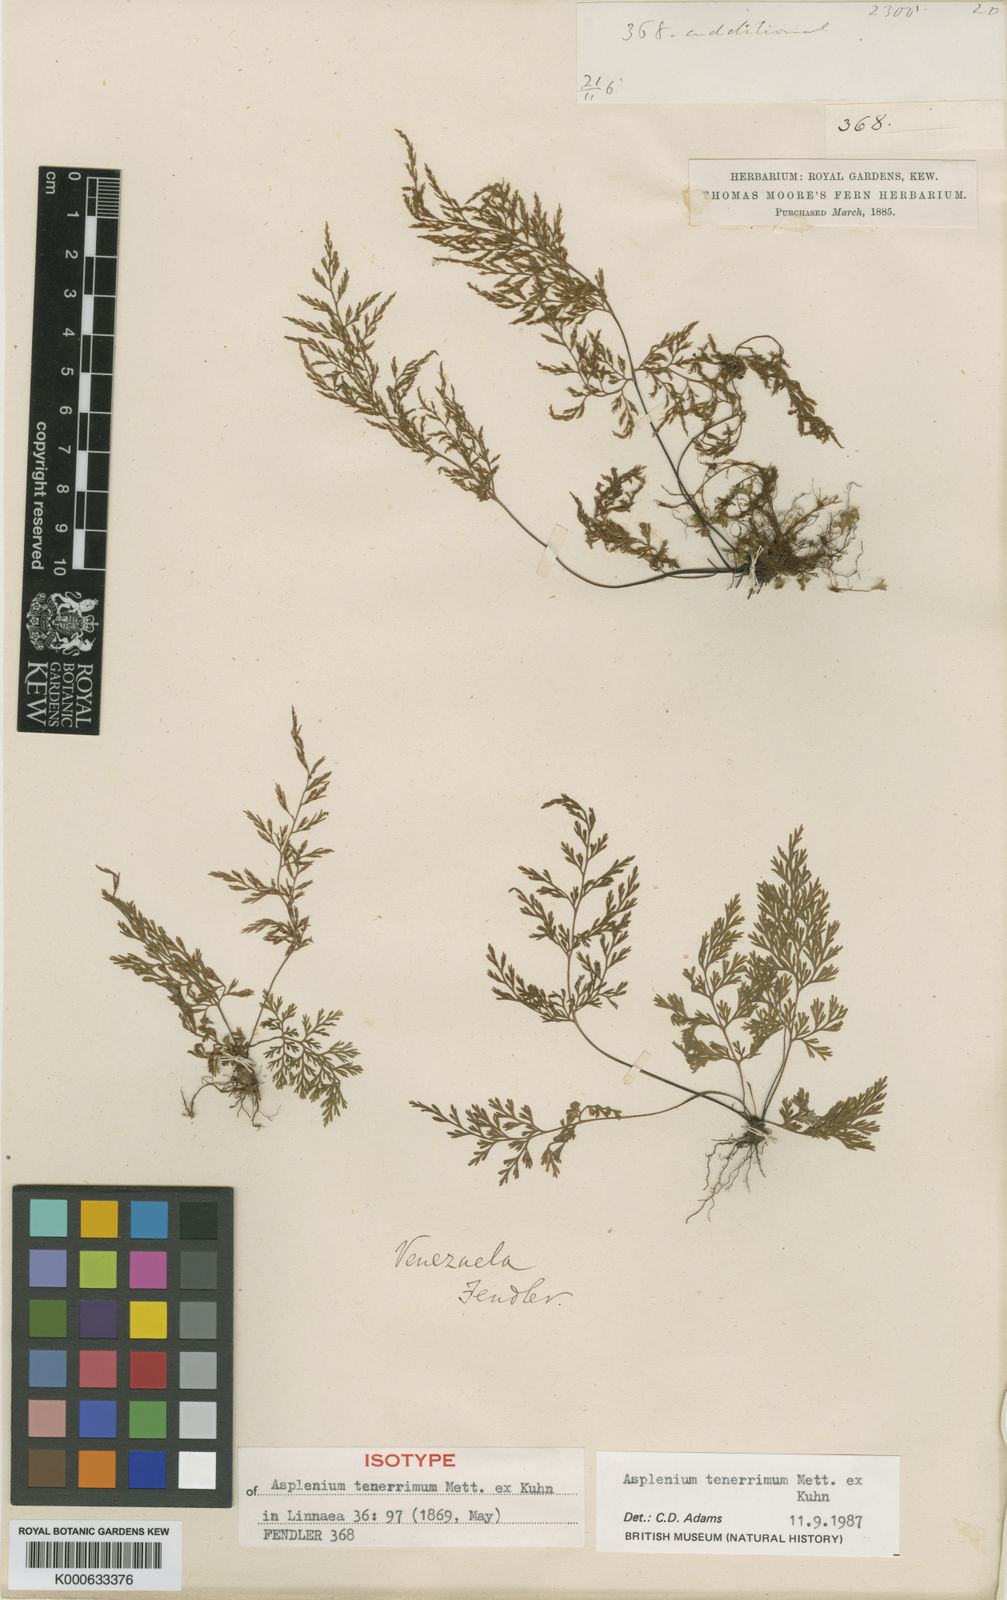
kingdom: Plantae
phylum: Tracheophyta
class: Polypodiopsida
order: Polypodiales
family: Aspleniaceae
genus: Asplenium
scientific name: Asplenium tenerrimum
